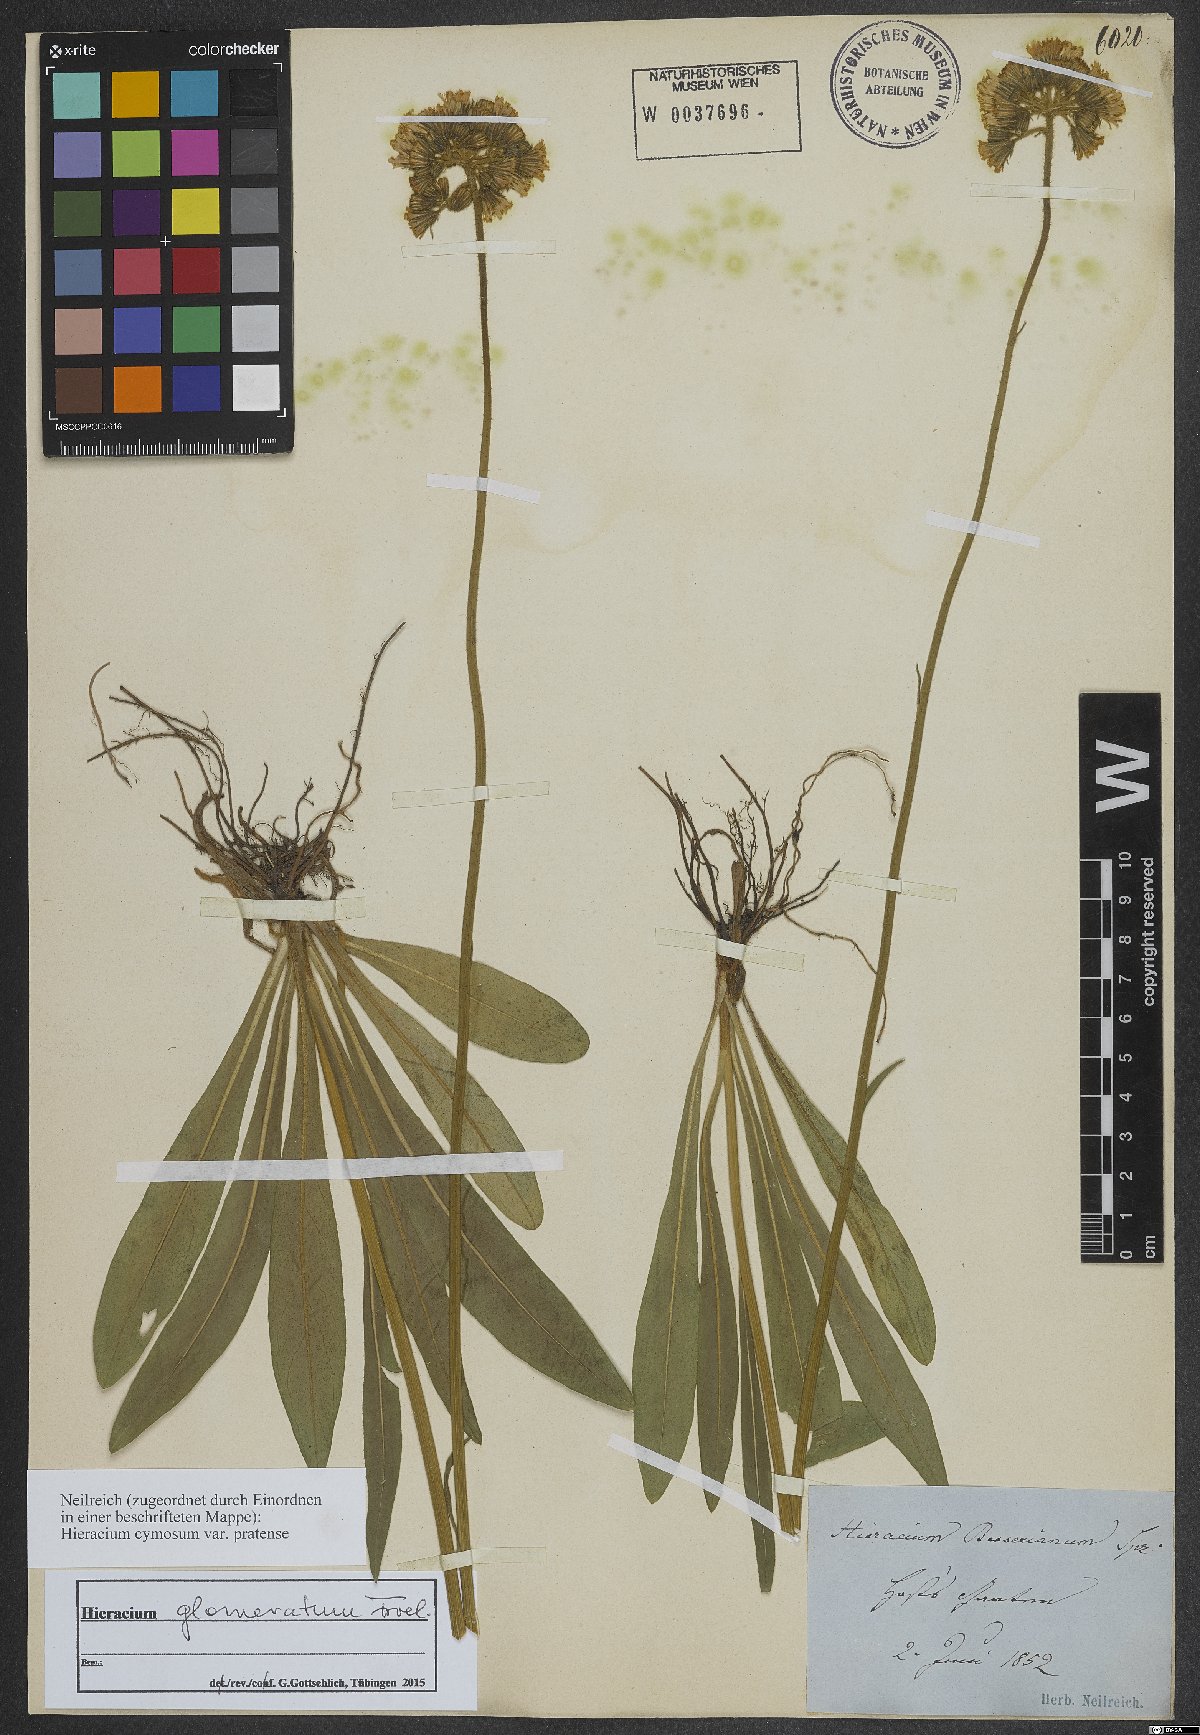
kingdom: Plantae
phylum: Tracheophyta
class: Magnoliopsida
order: Asterales
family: Asteraceae
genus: Pilosella
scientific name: Pilosella glomerata
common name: Queen devil hawkweed
